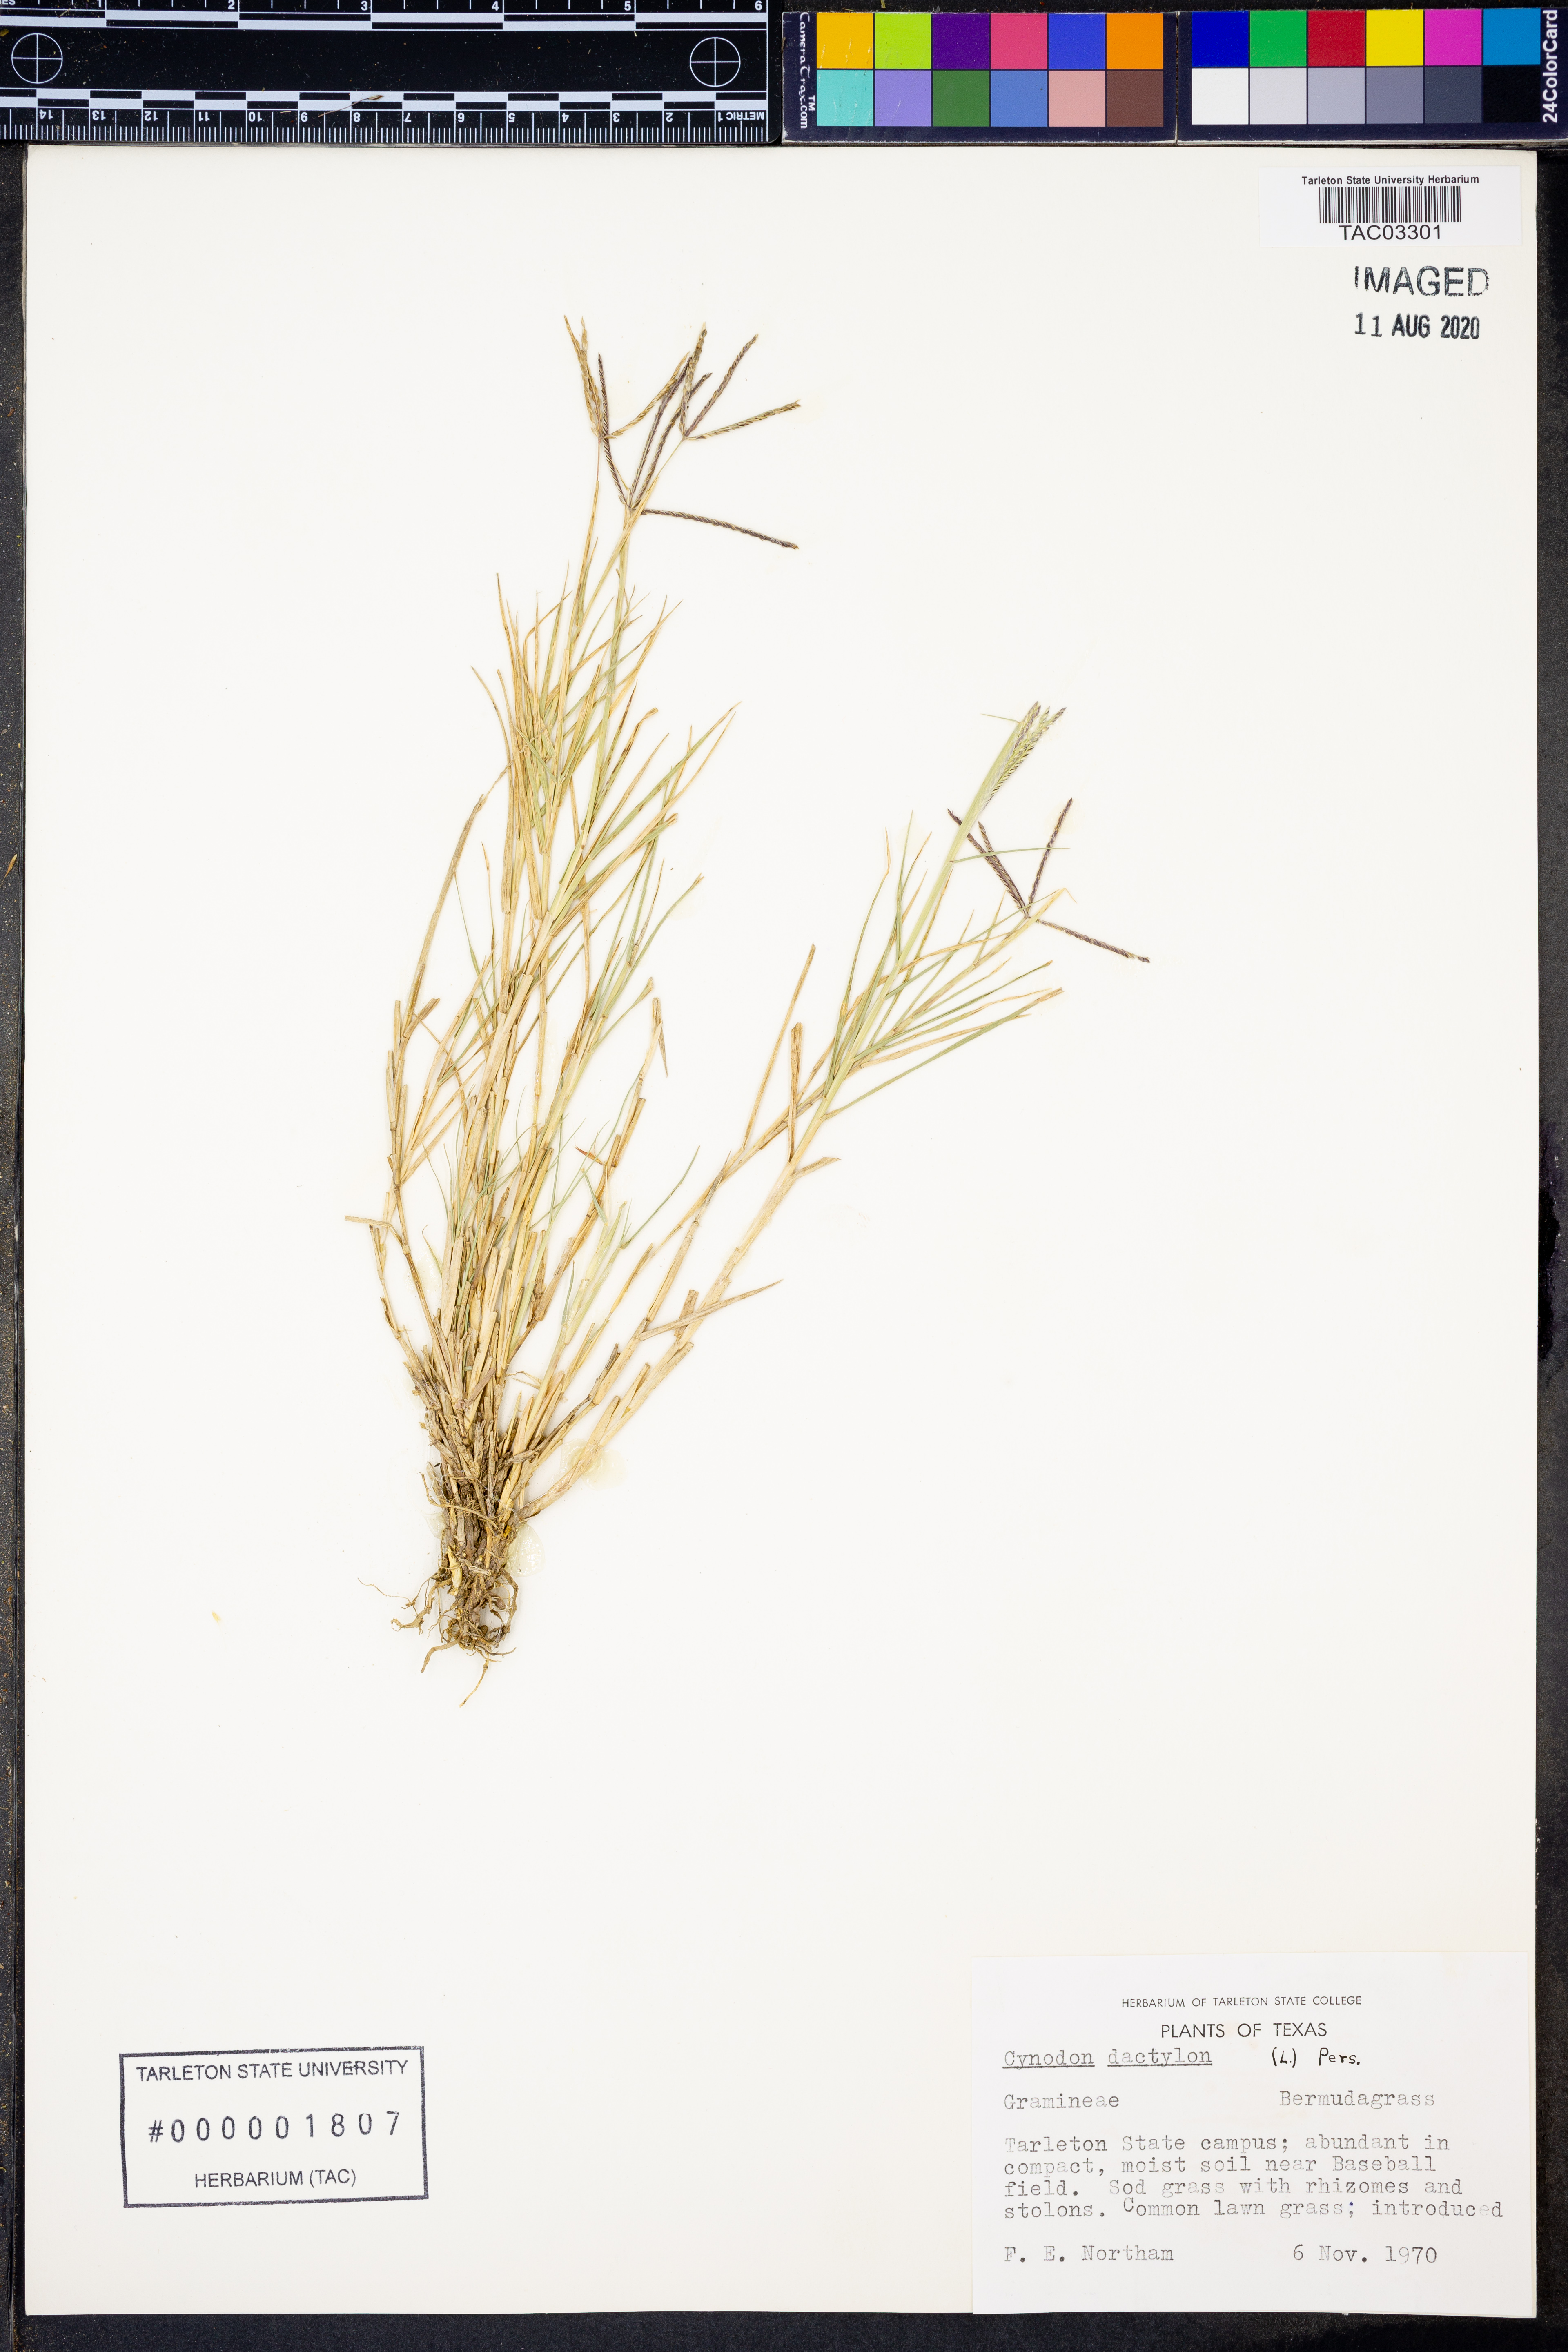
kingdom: Plantae
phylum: Tracheophyta
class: Liliopsida
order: Poales
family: Poaceae
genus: Cynodon
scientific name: Cynodon dactylon
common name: Bermuda grass
